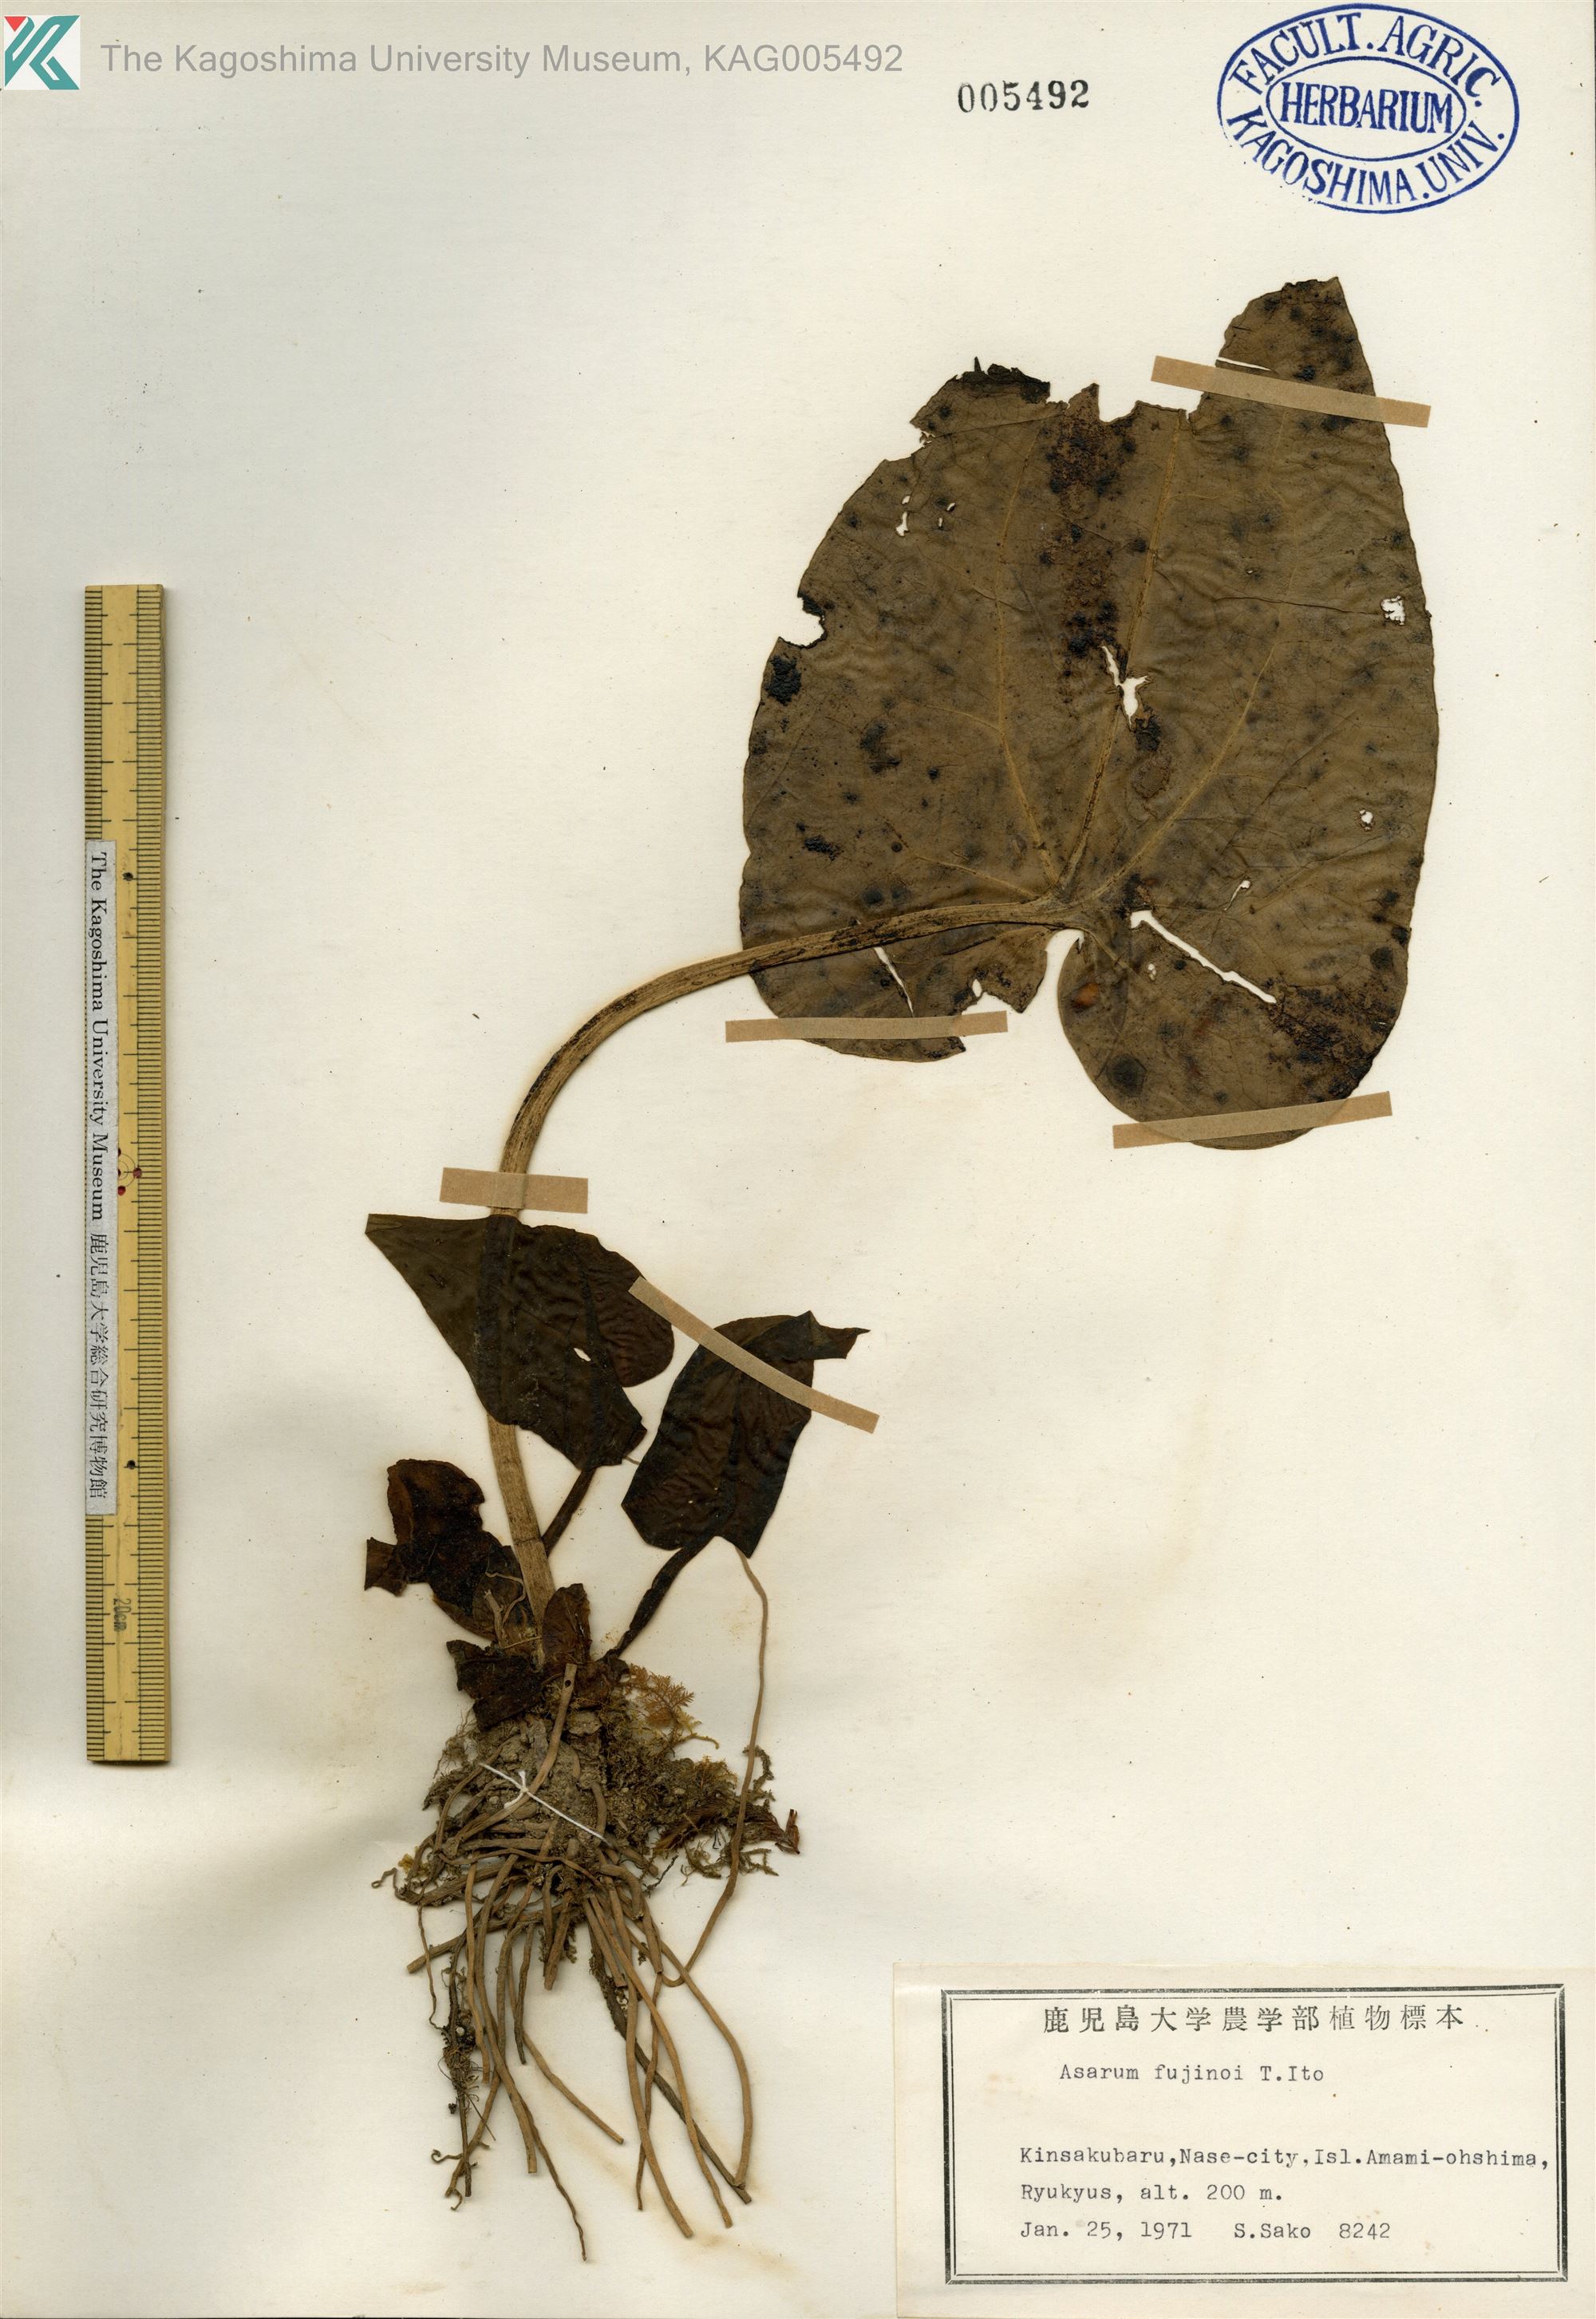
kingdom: Plantae
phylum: Tracheophyta
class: Magnoliopsida
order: Piperales
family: Aristolochiaceae
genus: Asarum
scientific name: Asarum
